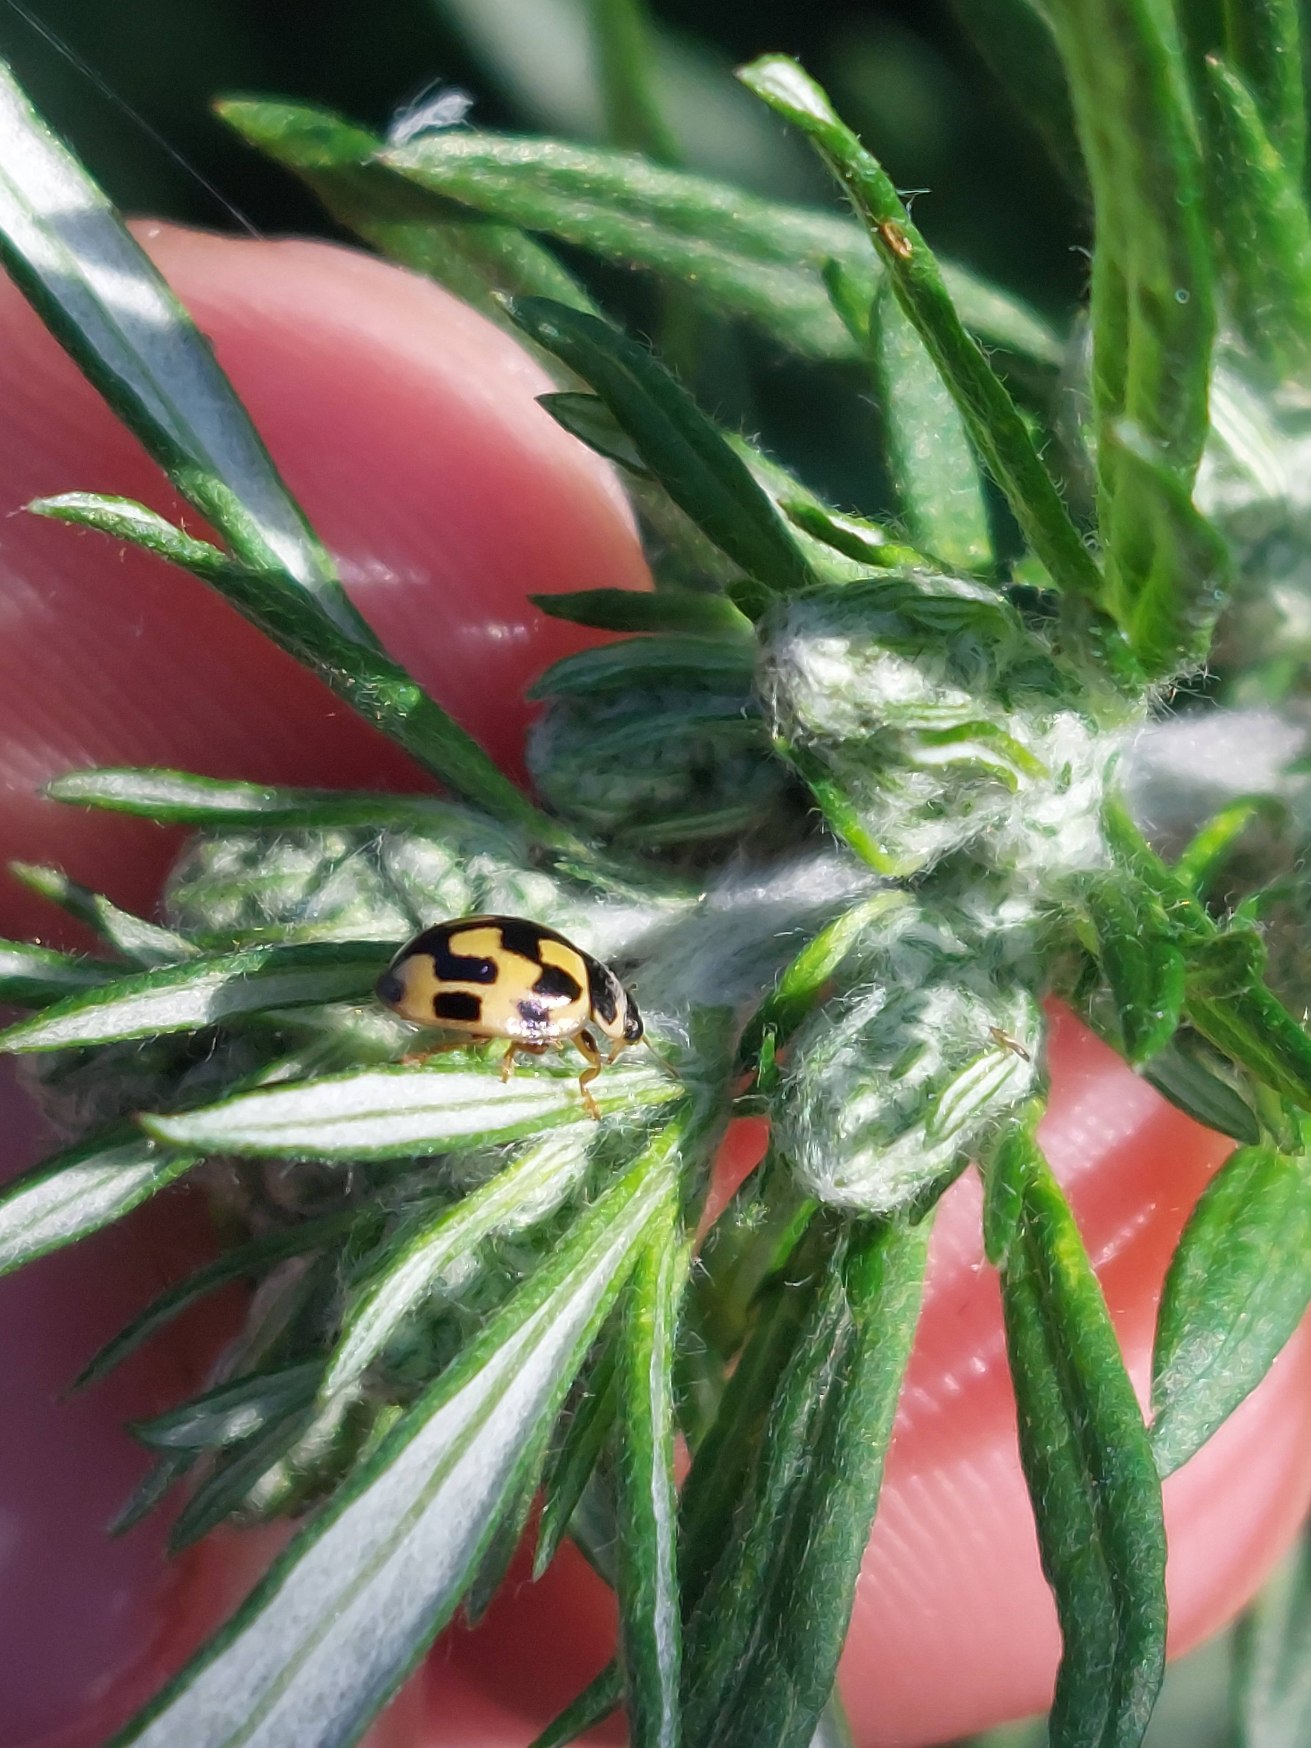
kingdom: Animalia
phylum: Arthropoda
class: Insecta
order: Coleoptera
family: Coccinellidae
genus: Propylaea
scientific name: Propylaea quatuordecimpunctata
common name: Skakbræt
